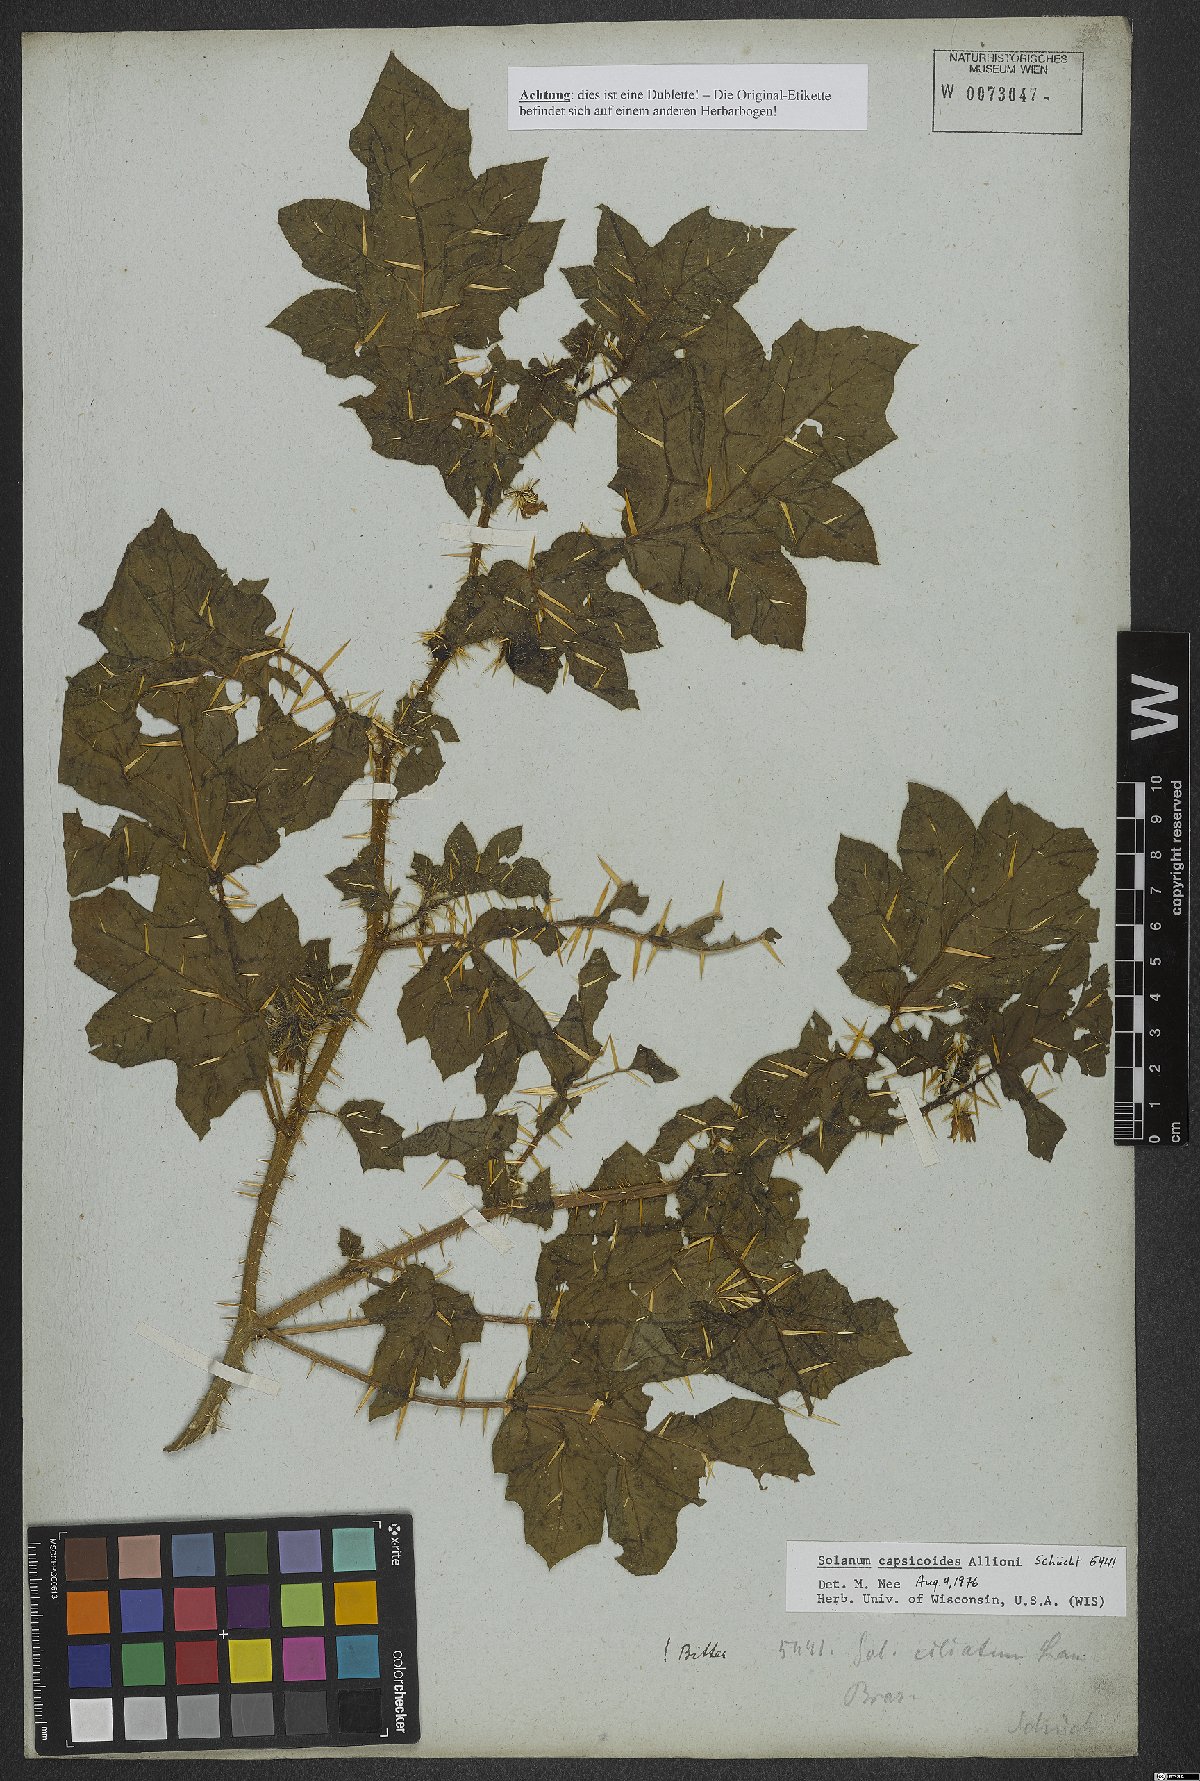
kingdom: Plantae
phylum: Tracheophyta
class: Magnoliopsida
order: Solanales
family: Solanaceae
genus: Solanum
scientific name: Solanum capsicoides
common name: Cockroach berry
